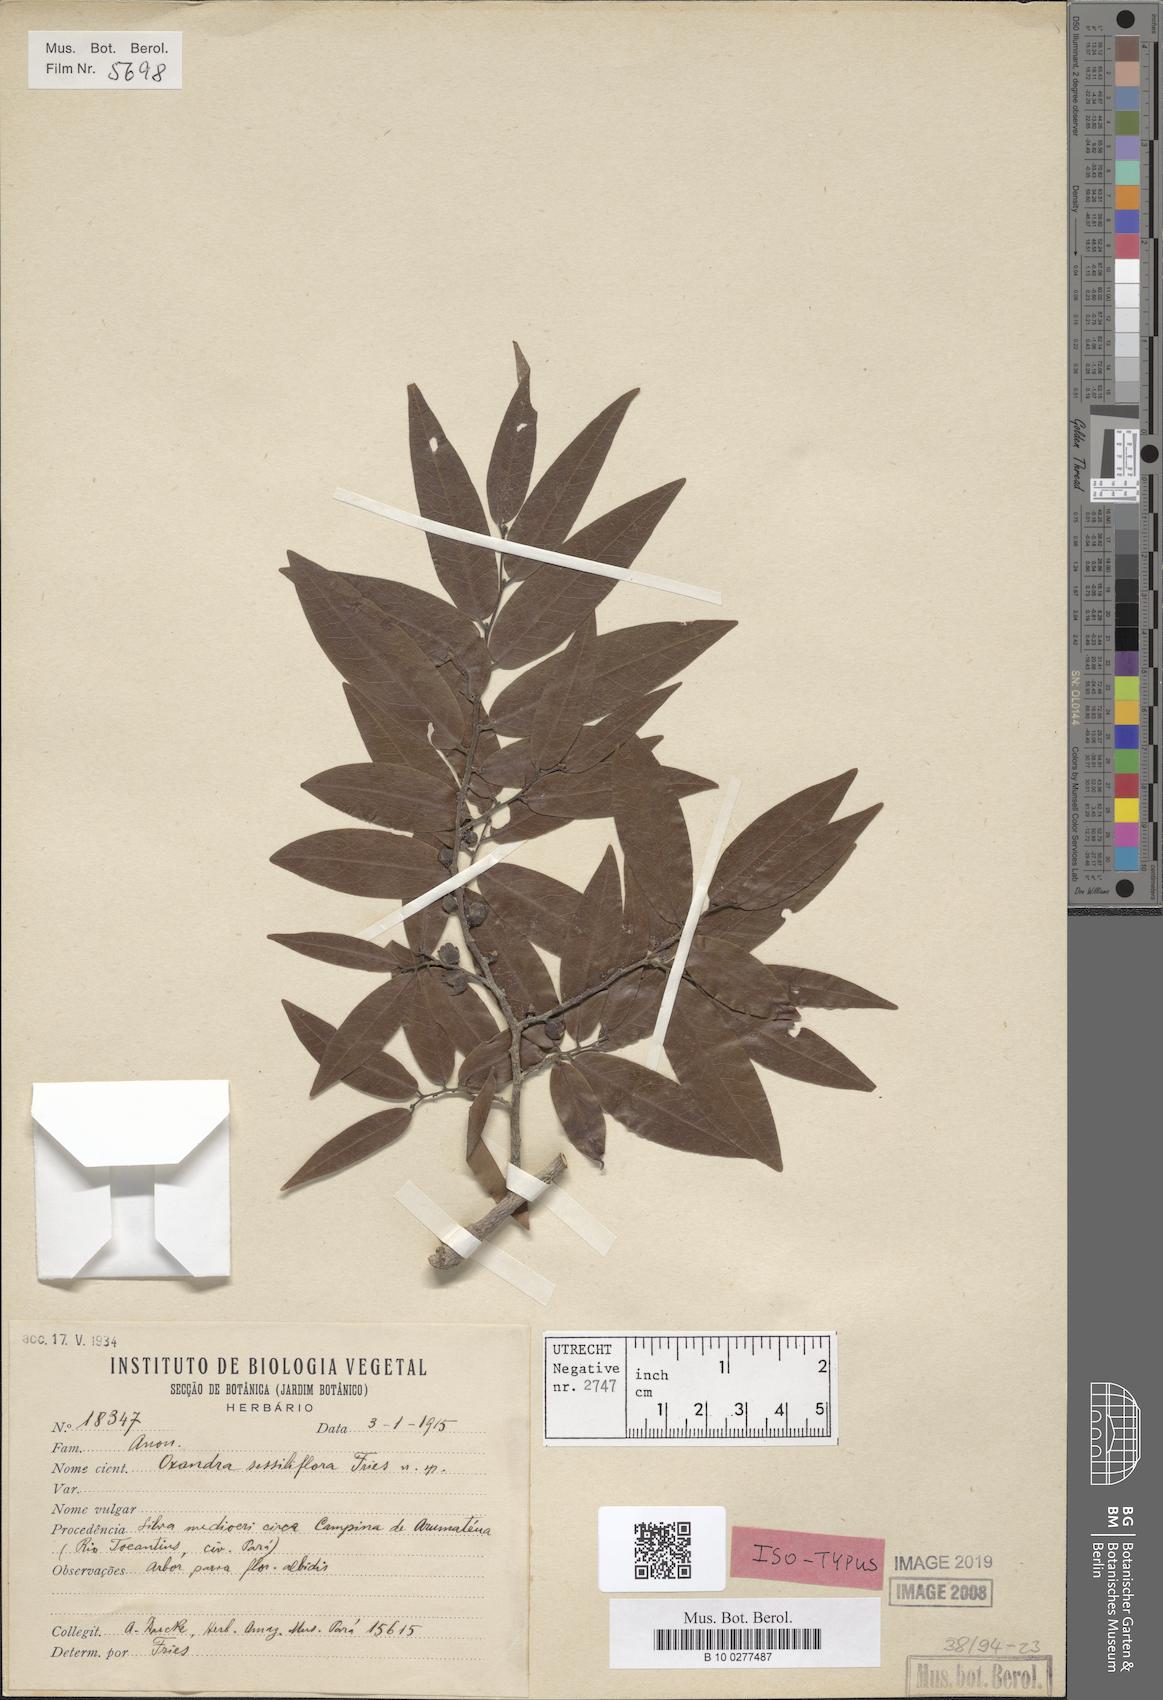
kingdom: Plantae
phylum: Tracheophyta
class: Magnoliopsida
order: Magnoliales
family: Annonaceae
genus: Oxandra
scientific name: Oxandra sessiliflora
